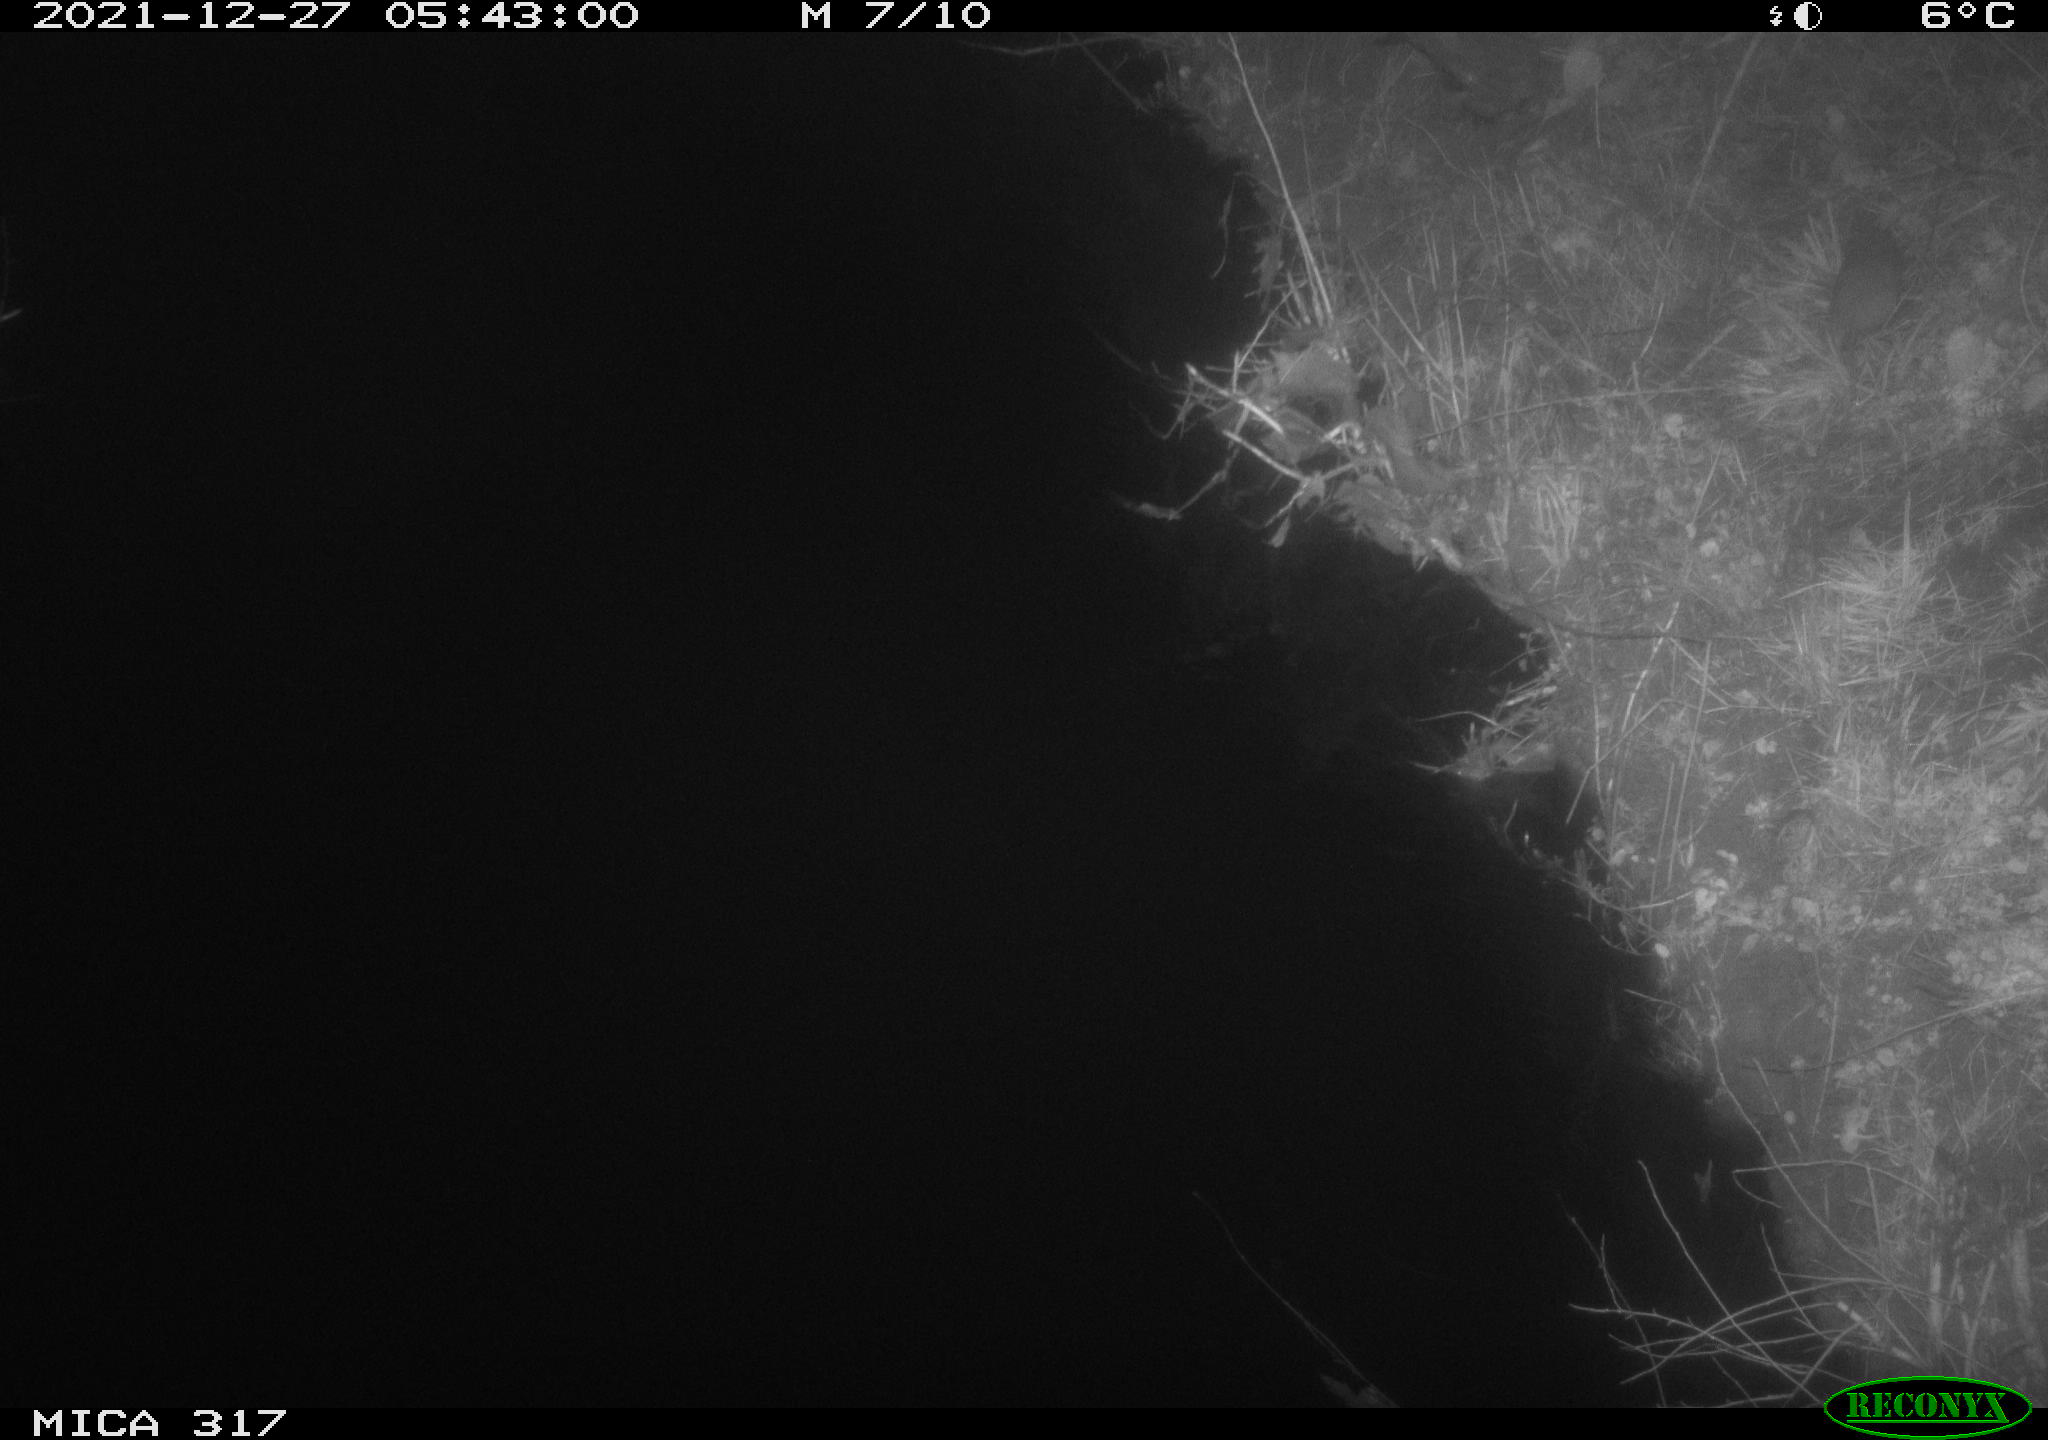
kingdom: Animalia
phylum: Chordata
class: Mammalia
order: Rodentia
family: Muridae
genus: Rattus
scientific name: Rattus norvegicus
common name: Brown rat
